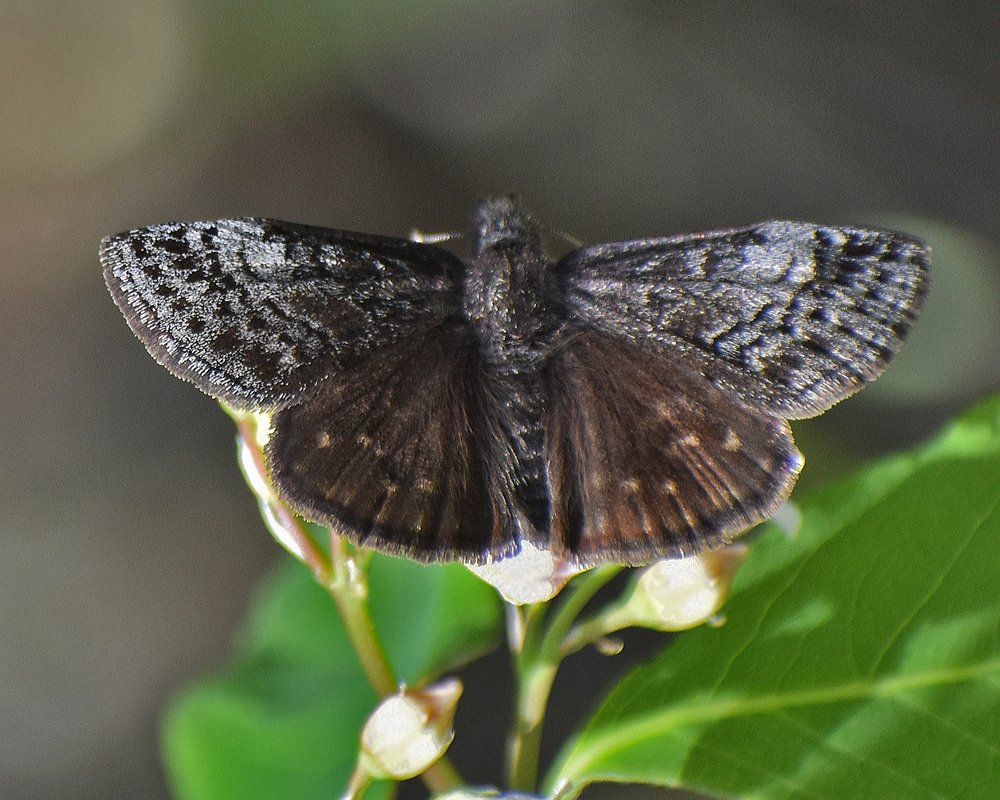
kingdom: Animalia
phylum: Arthropoda
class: Insecta
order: Lepidoptera
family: Hesperiidae
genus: Erynnis
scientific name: Erynnis icelus
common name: Dreamy Duskywing
